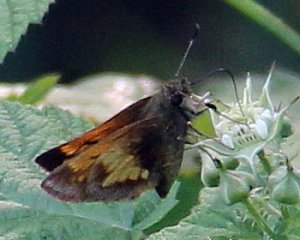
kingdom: Animalia
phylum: Arthropoda
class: Insecta
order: Lepidoptera
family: Hesperiidae
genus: Lon
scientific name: Lon hobomok
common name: Hobomok Skipper
